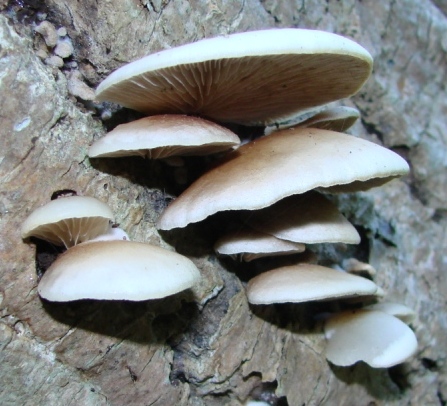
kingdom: Fungi
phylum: Basidiomycota
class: Agaricomycetes
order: Agaricales
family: Crepidotaceae
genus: Crepidotus
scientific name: Crepidotus mollis
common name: blød muslingesvamp
